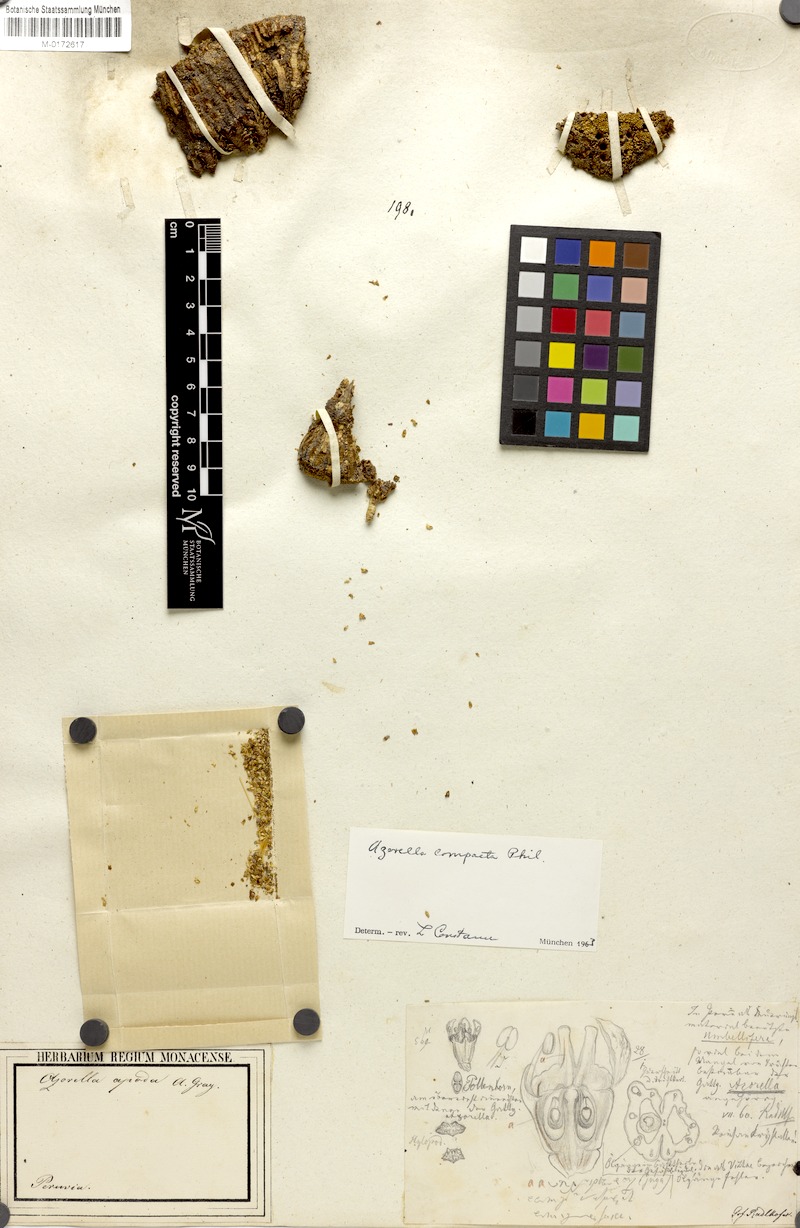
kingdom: Plantae
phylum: Tracheophyta
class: Magnoliopsida
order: Apiales
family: Apiaceae
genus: Azorella
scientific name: Azorella compacta
